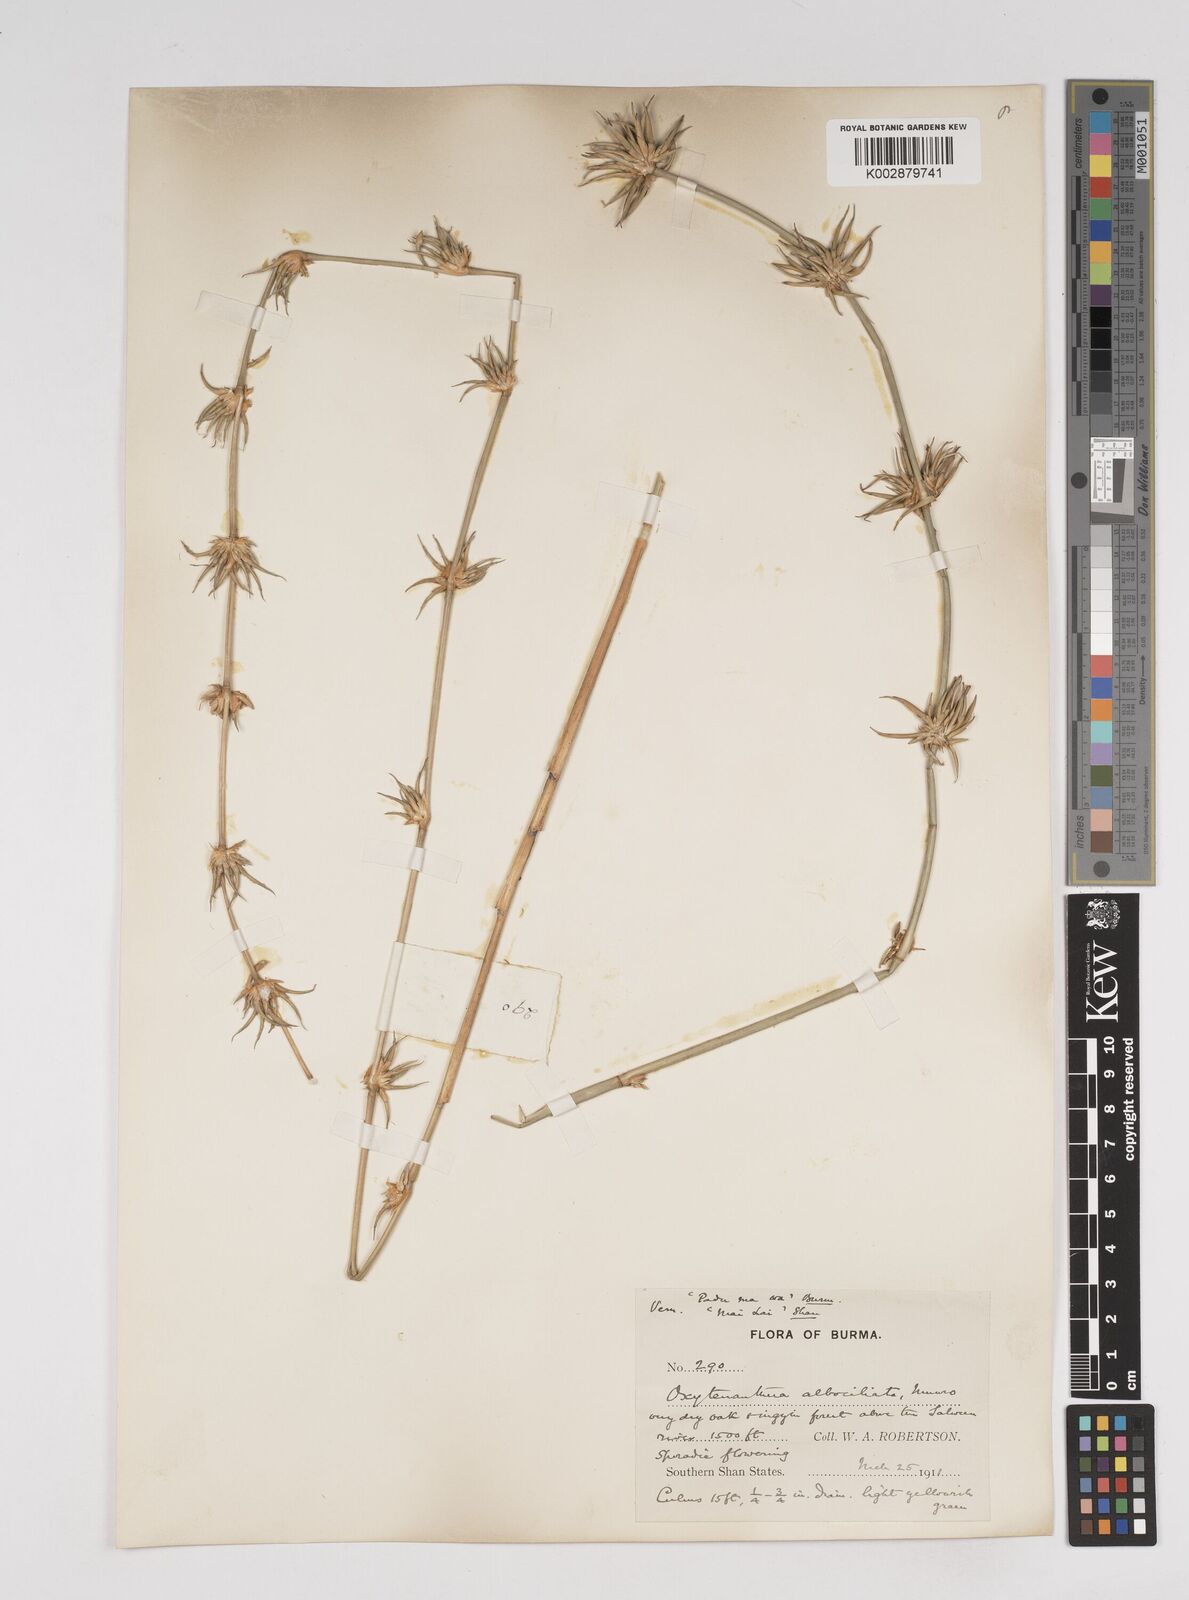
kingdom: Plantae
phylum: Tracheophyta
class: Liliopsida
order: Poales
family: Poaceae
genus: Gigantochloa
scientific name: Gigantochloa albociliata
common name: White-fringe gigantochloa
